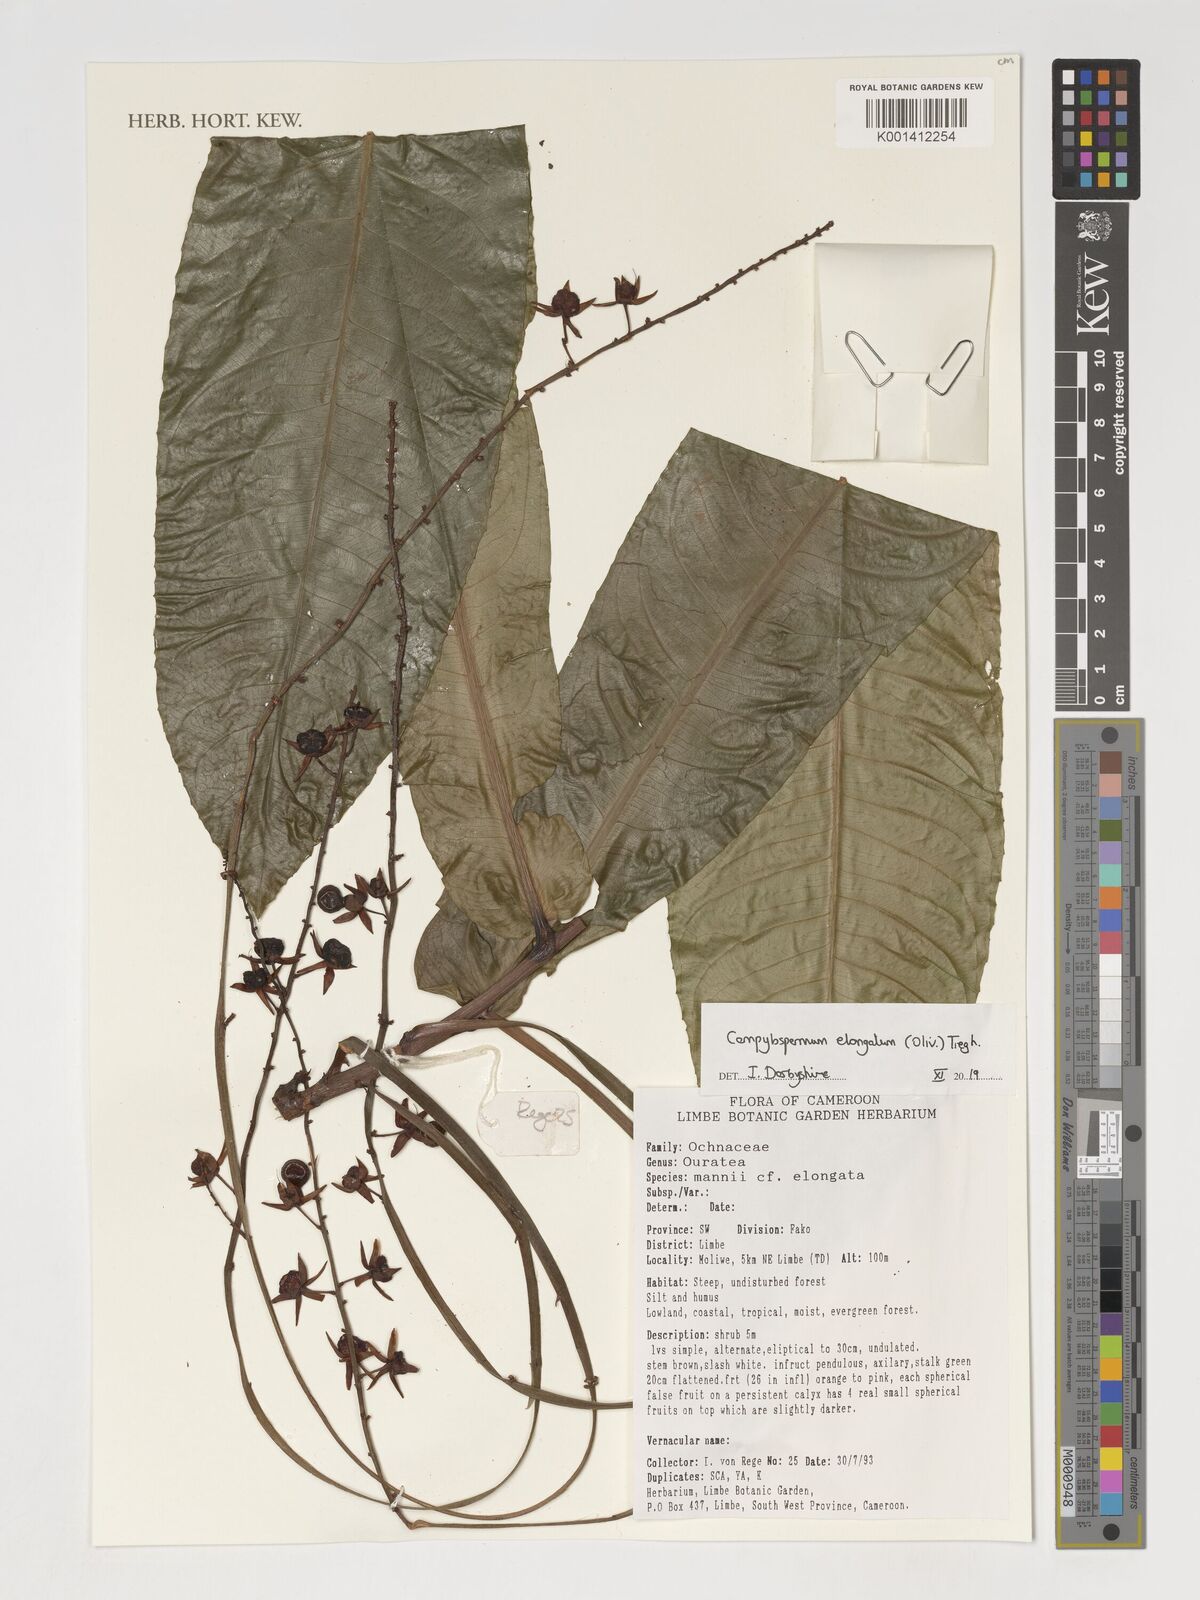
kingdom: Plantae
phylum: Tracheophyta
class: Magnoliopsida
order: Malpighiales
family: Ochnaceae
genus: Gomphia
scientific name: Gomphia elongata
